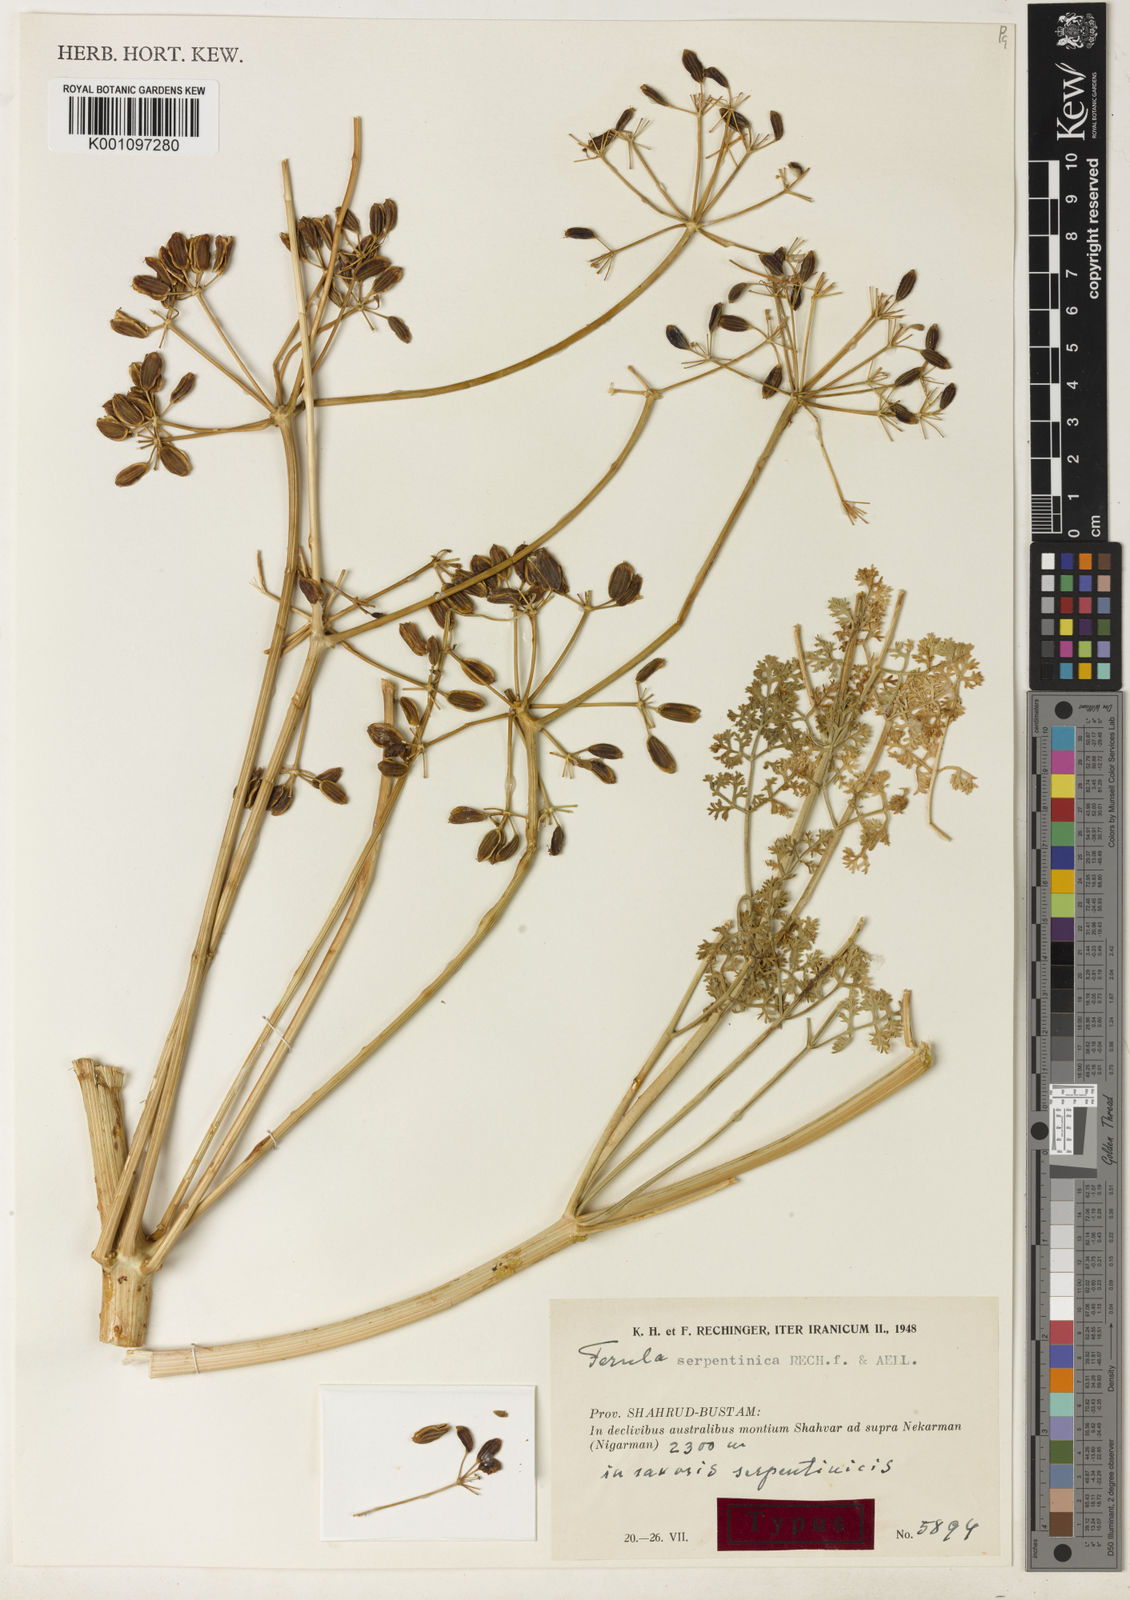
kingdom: Plantae
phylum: Tracheophyta
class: Magnoliopsida
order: Apiales
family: Apiaceae
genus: Ferula
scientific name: Ferula serpentinica
